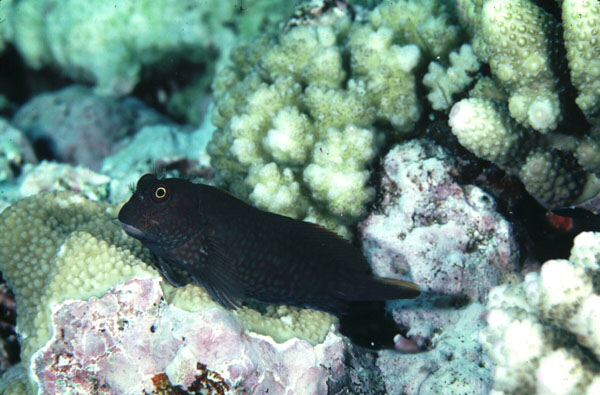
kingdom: Animalia
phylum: Chordata
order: Perciformes
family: Blenniidae
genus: Cirripectes
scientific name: Cirripectes stigmaticus
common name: Red-streaked blenny
